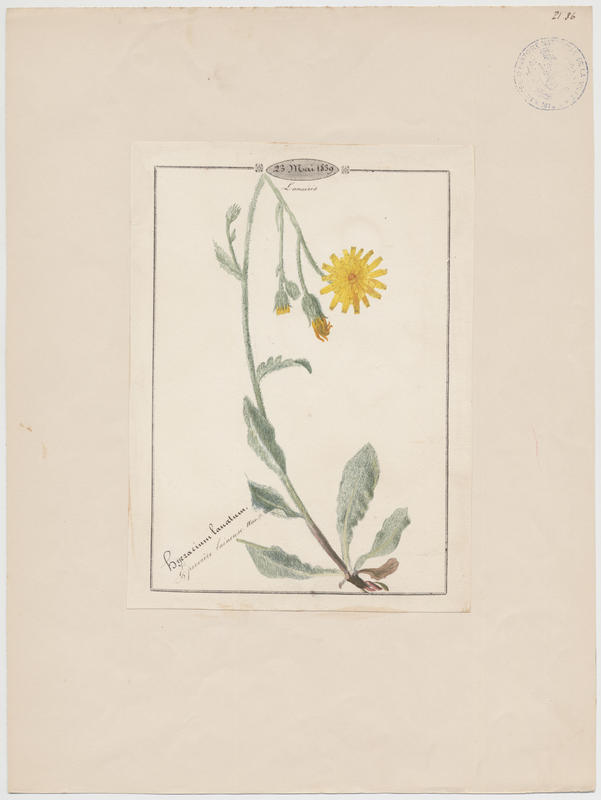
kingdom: Plantae
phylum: Tracheophyta
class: Magnoliopsida
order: Asterales
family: Asteraceae
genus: Hieracium
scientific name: Hieracium tomentosum
